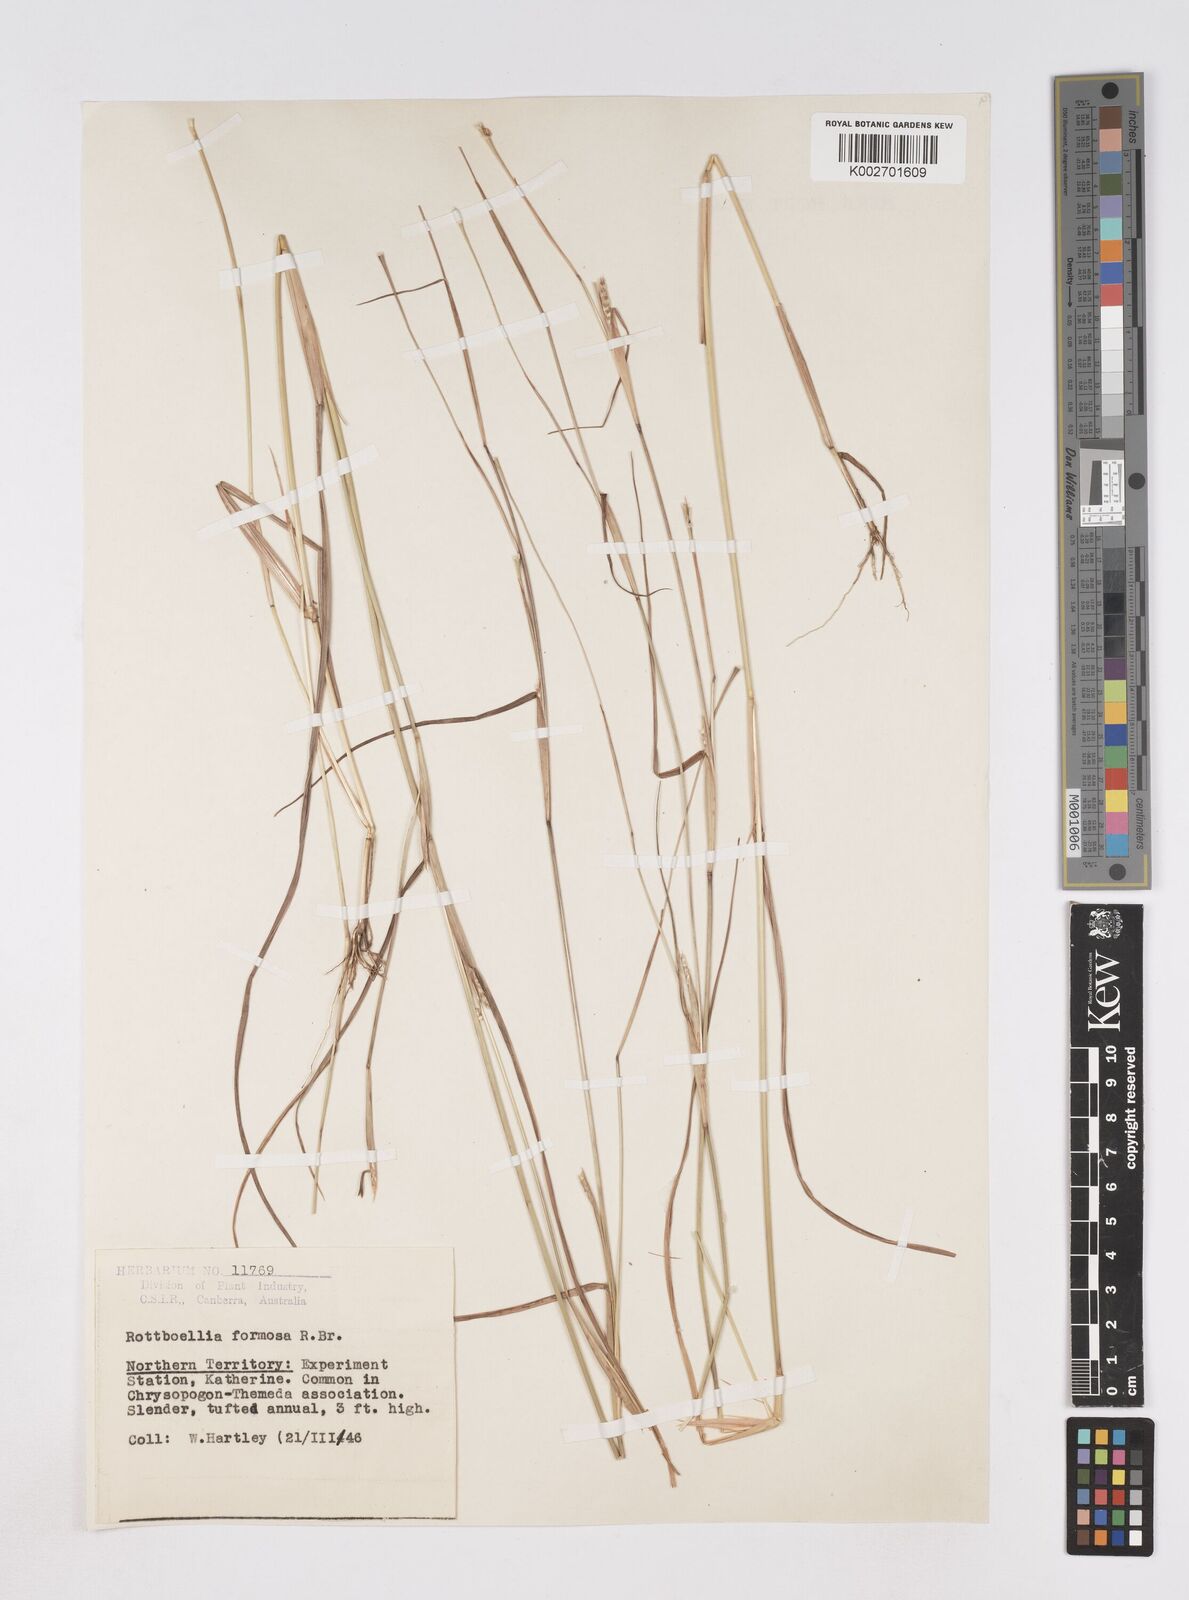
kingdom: Plantae
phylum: Tracheophyta
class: Liliopsida
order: Poales
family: Poaceae
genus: Heteropholis
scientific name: Heteropholis
